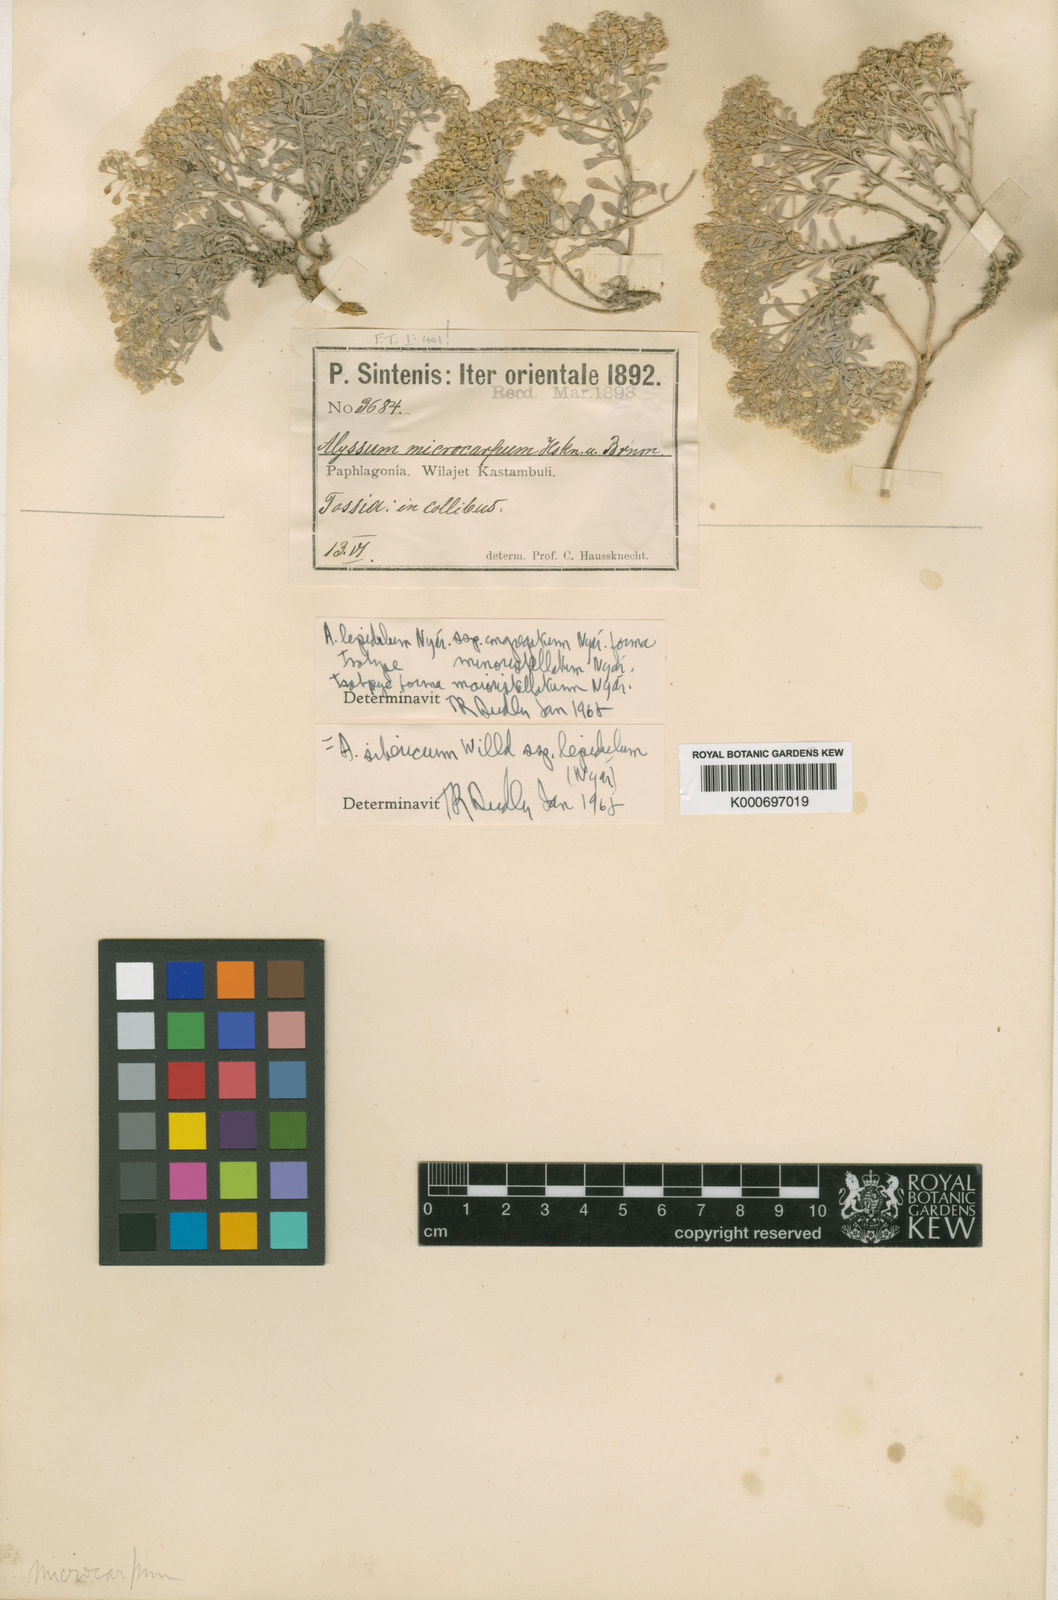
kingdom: Plantae
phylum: Tracheophyta
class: Magnoliopsida
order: Brassicales
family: Brassicaceae
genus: Odontarrhena
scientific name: Odontarrhena sibirica
